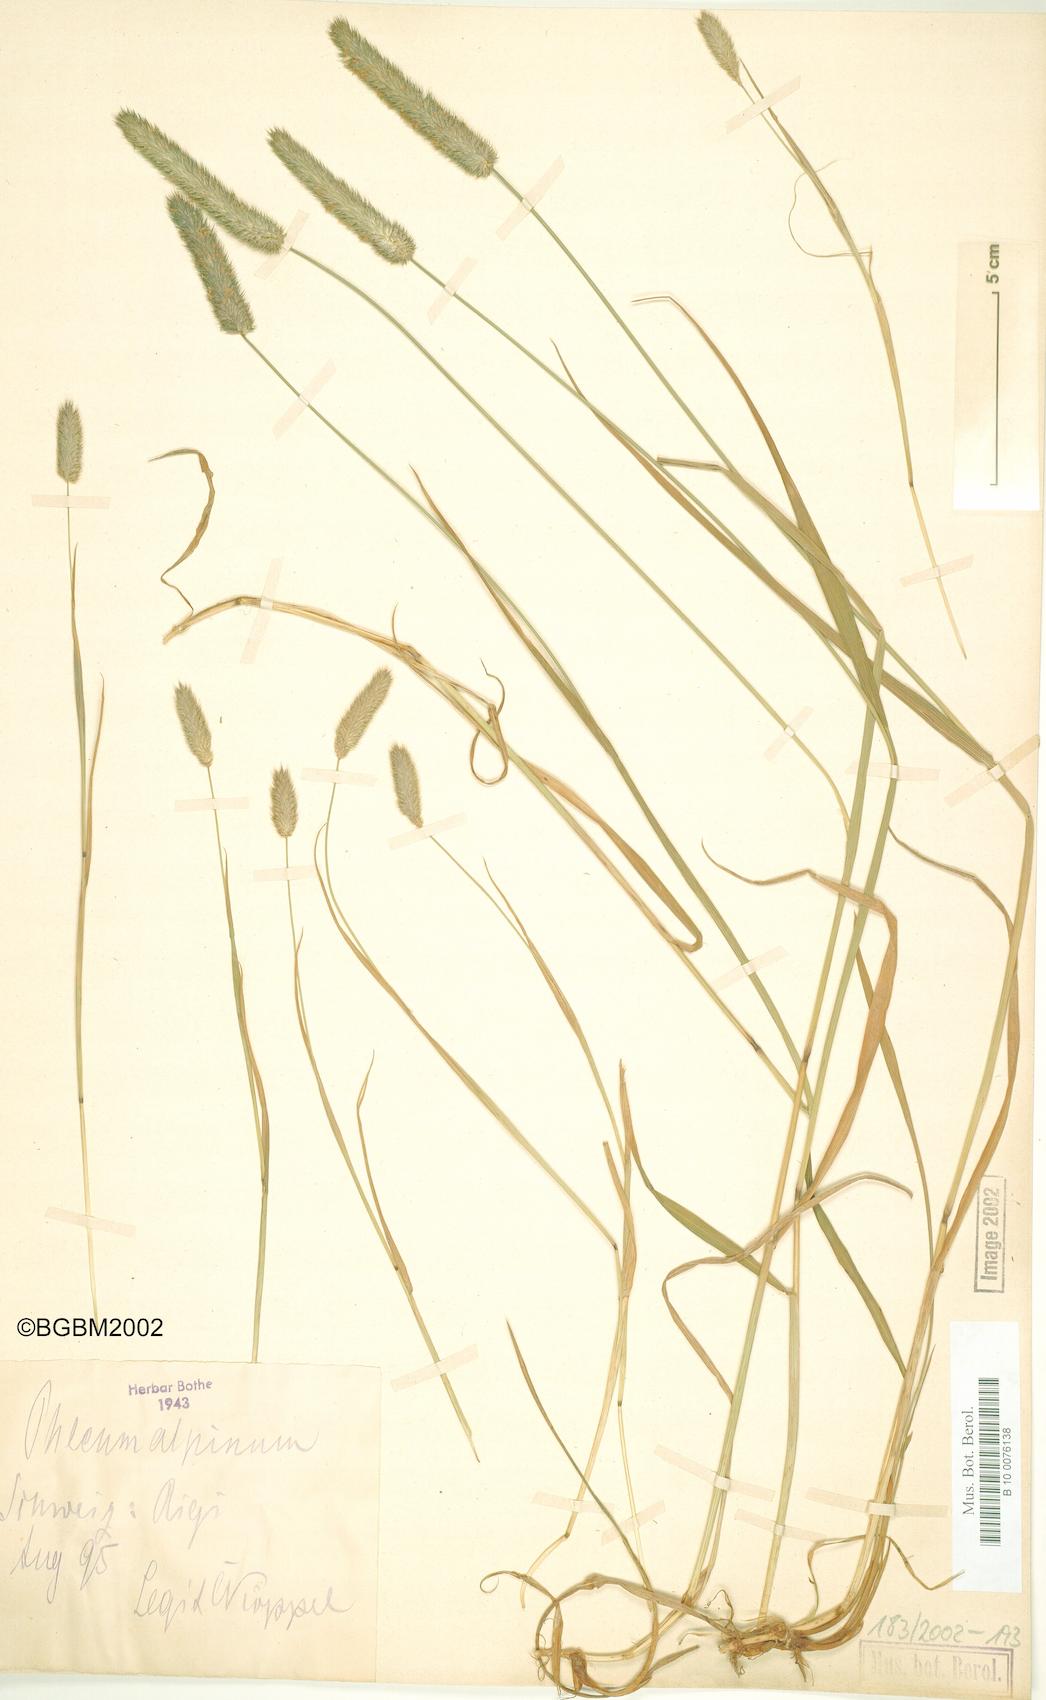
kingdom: Plantae
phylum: Tracheophyta
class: Liliopsida
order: Poales
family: Poaceae
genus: Phleum
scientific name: Phleum alpinum
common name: Alpine cat's-tail
